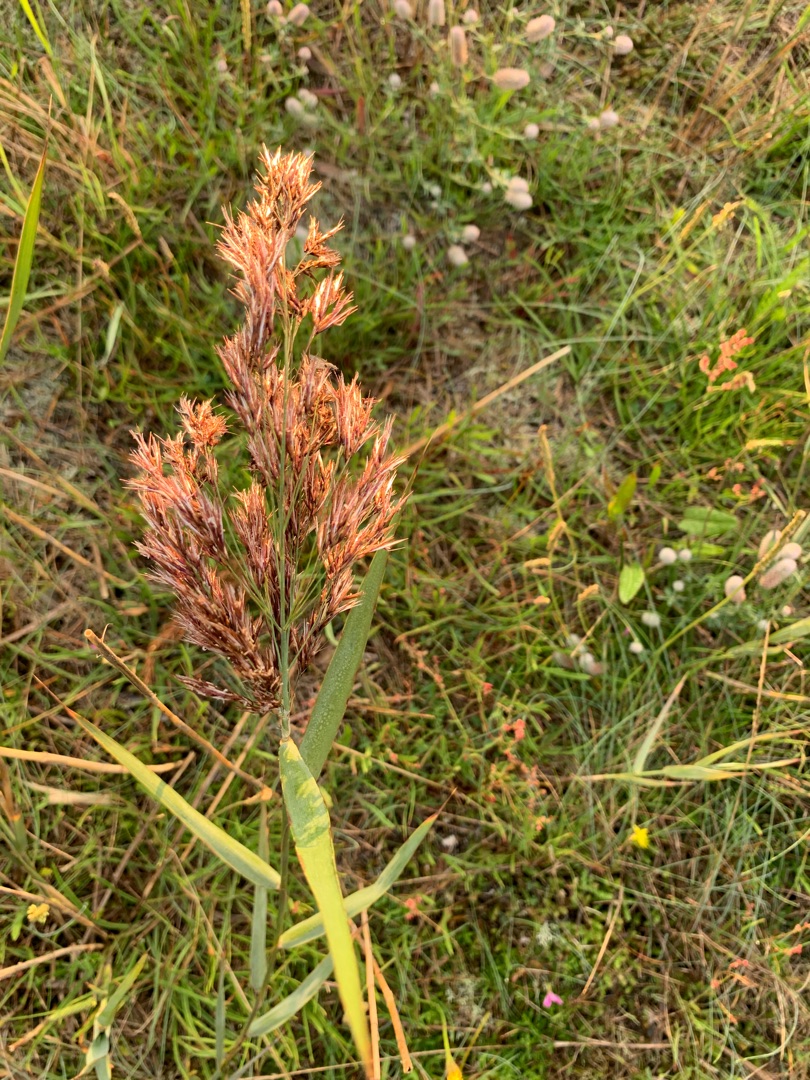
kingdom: Plantae
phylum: Tracheophyta
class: Liliopsida
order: Poales
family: Poaceae
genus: Phragmites
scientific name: Phragmites australis
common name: Tagrør
